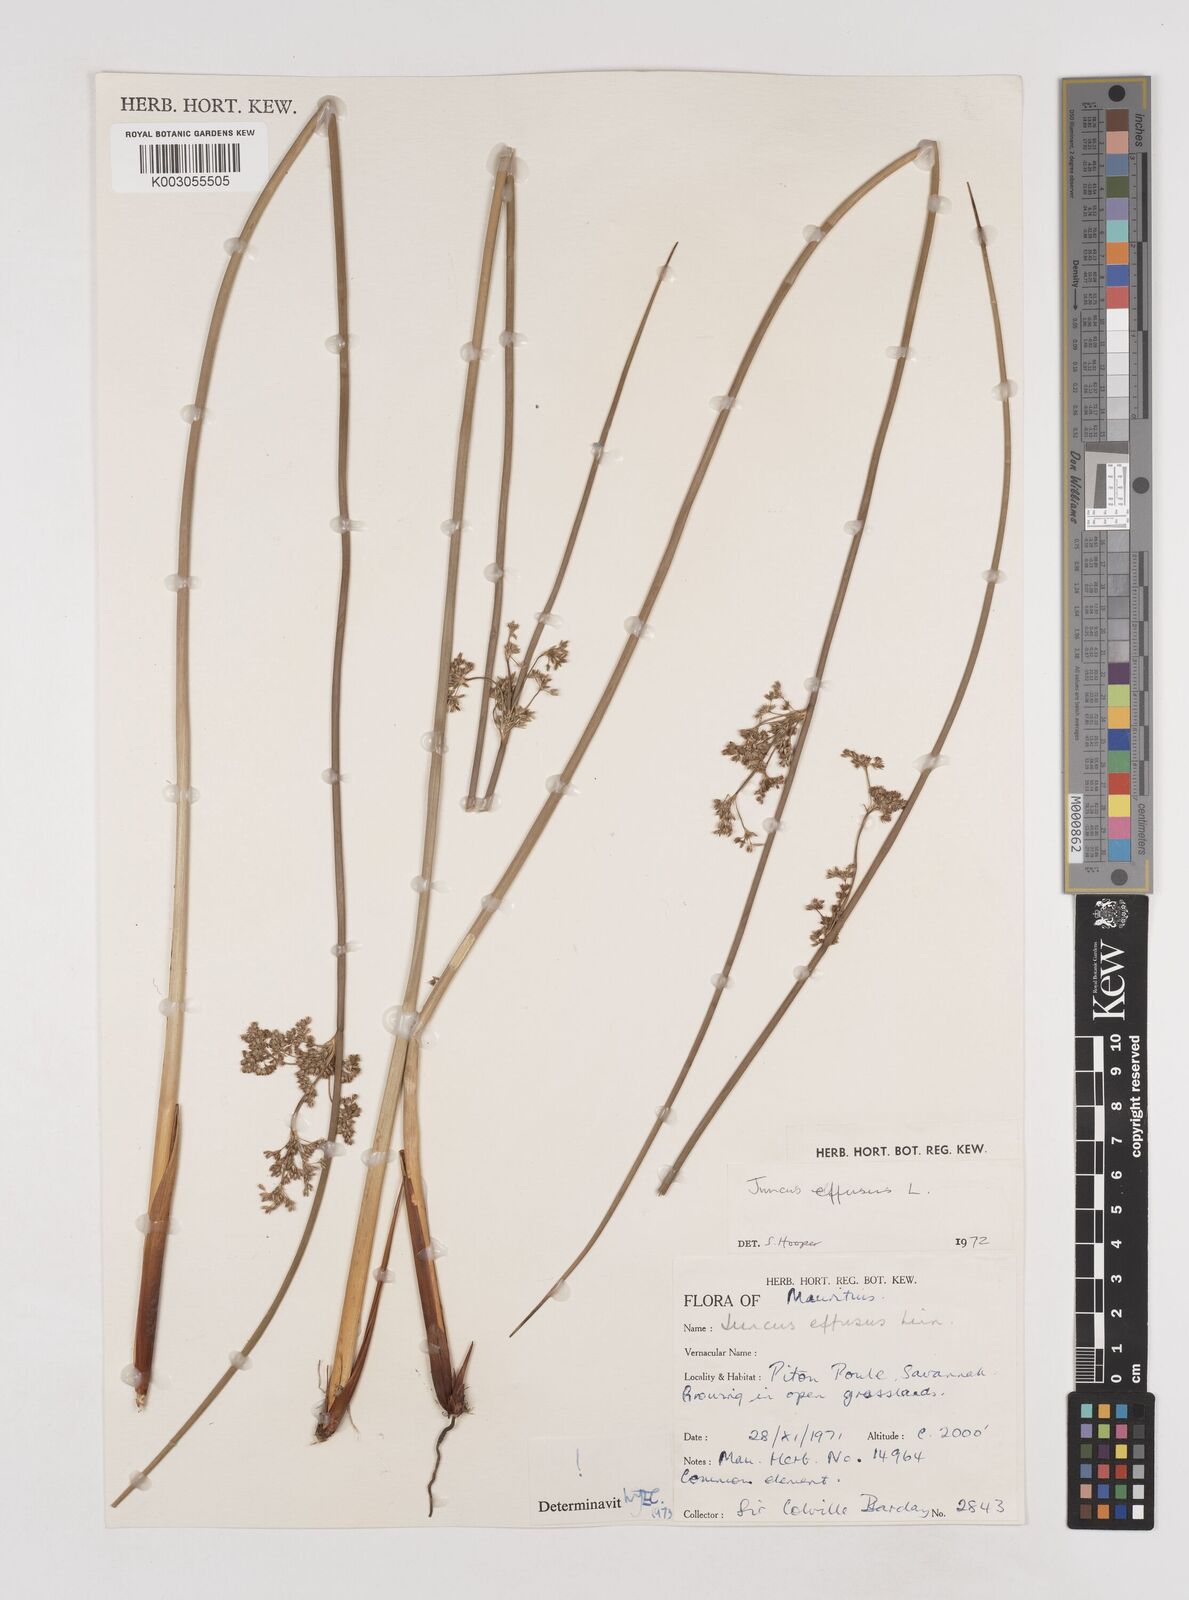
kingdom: Plantae
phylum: Tracheophyta
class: Liliopsida
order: Poales
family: Juncaceae
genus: Juncus
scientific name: Juncus effusus
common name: Soft rush
